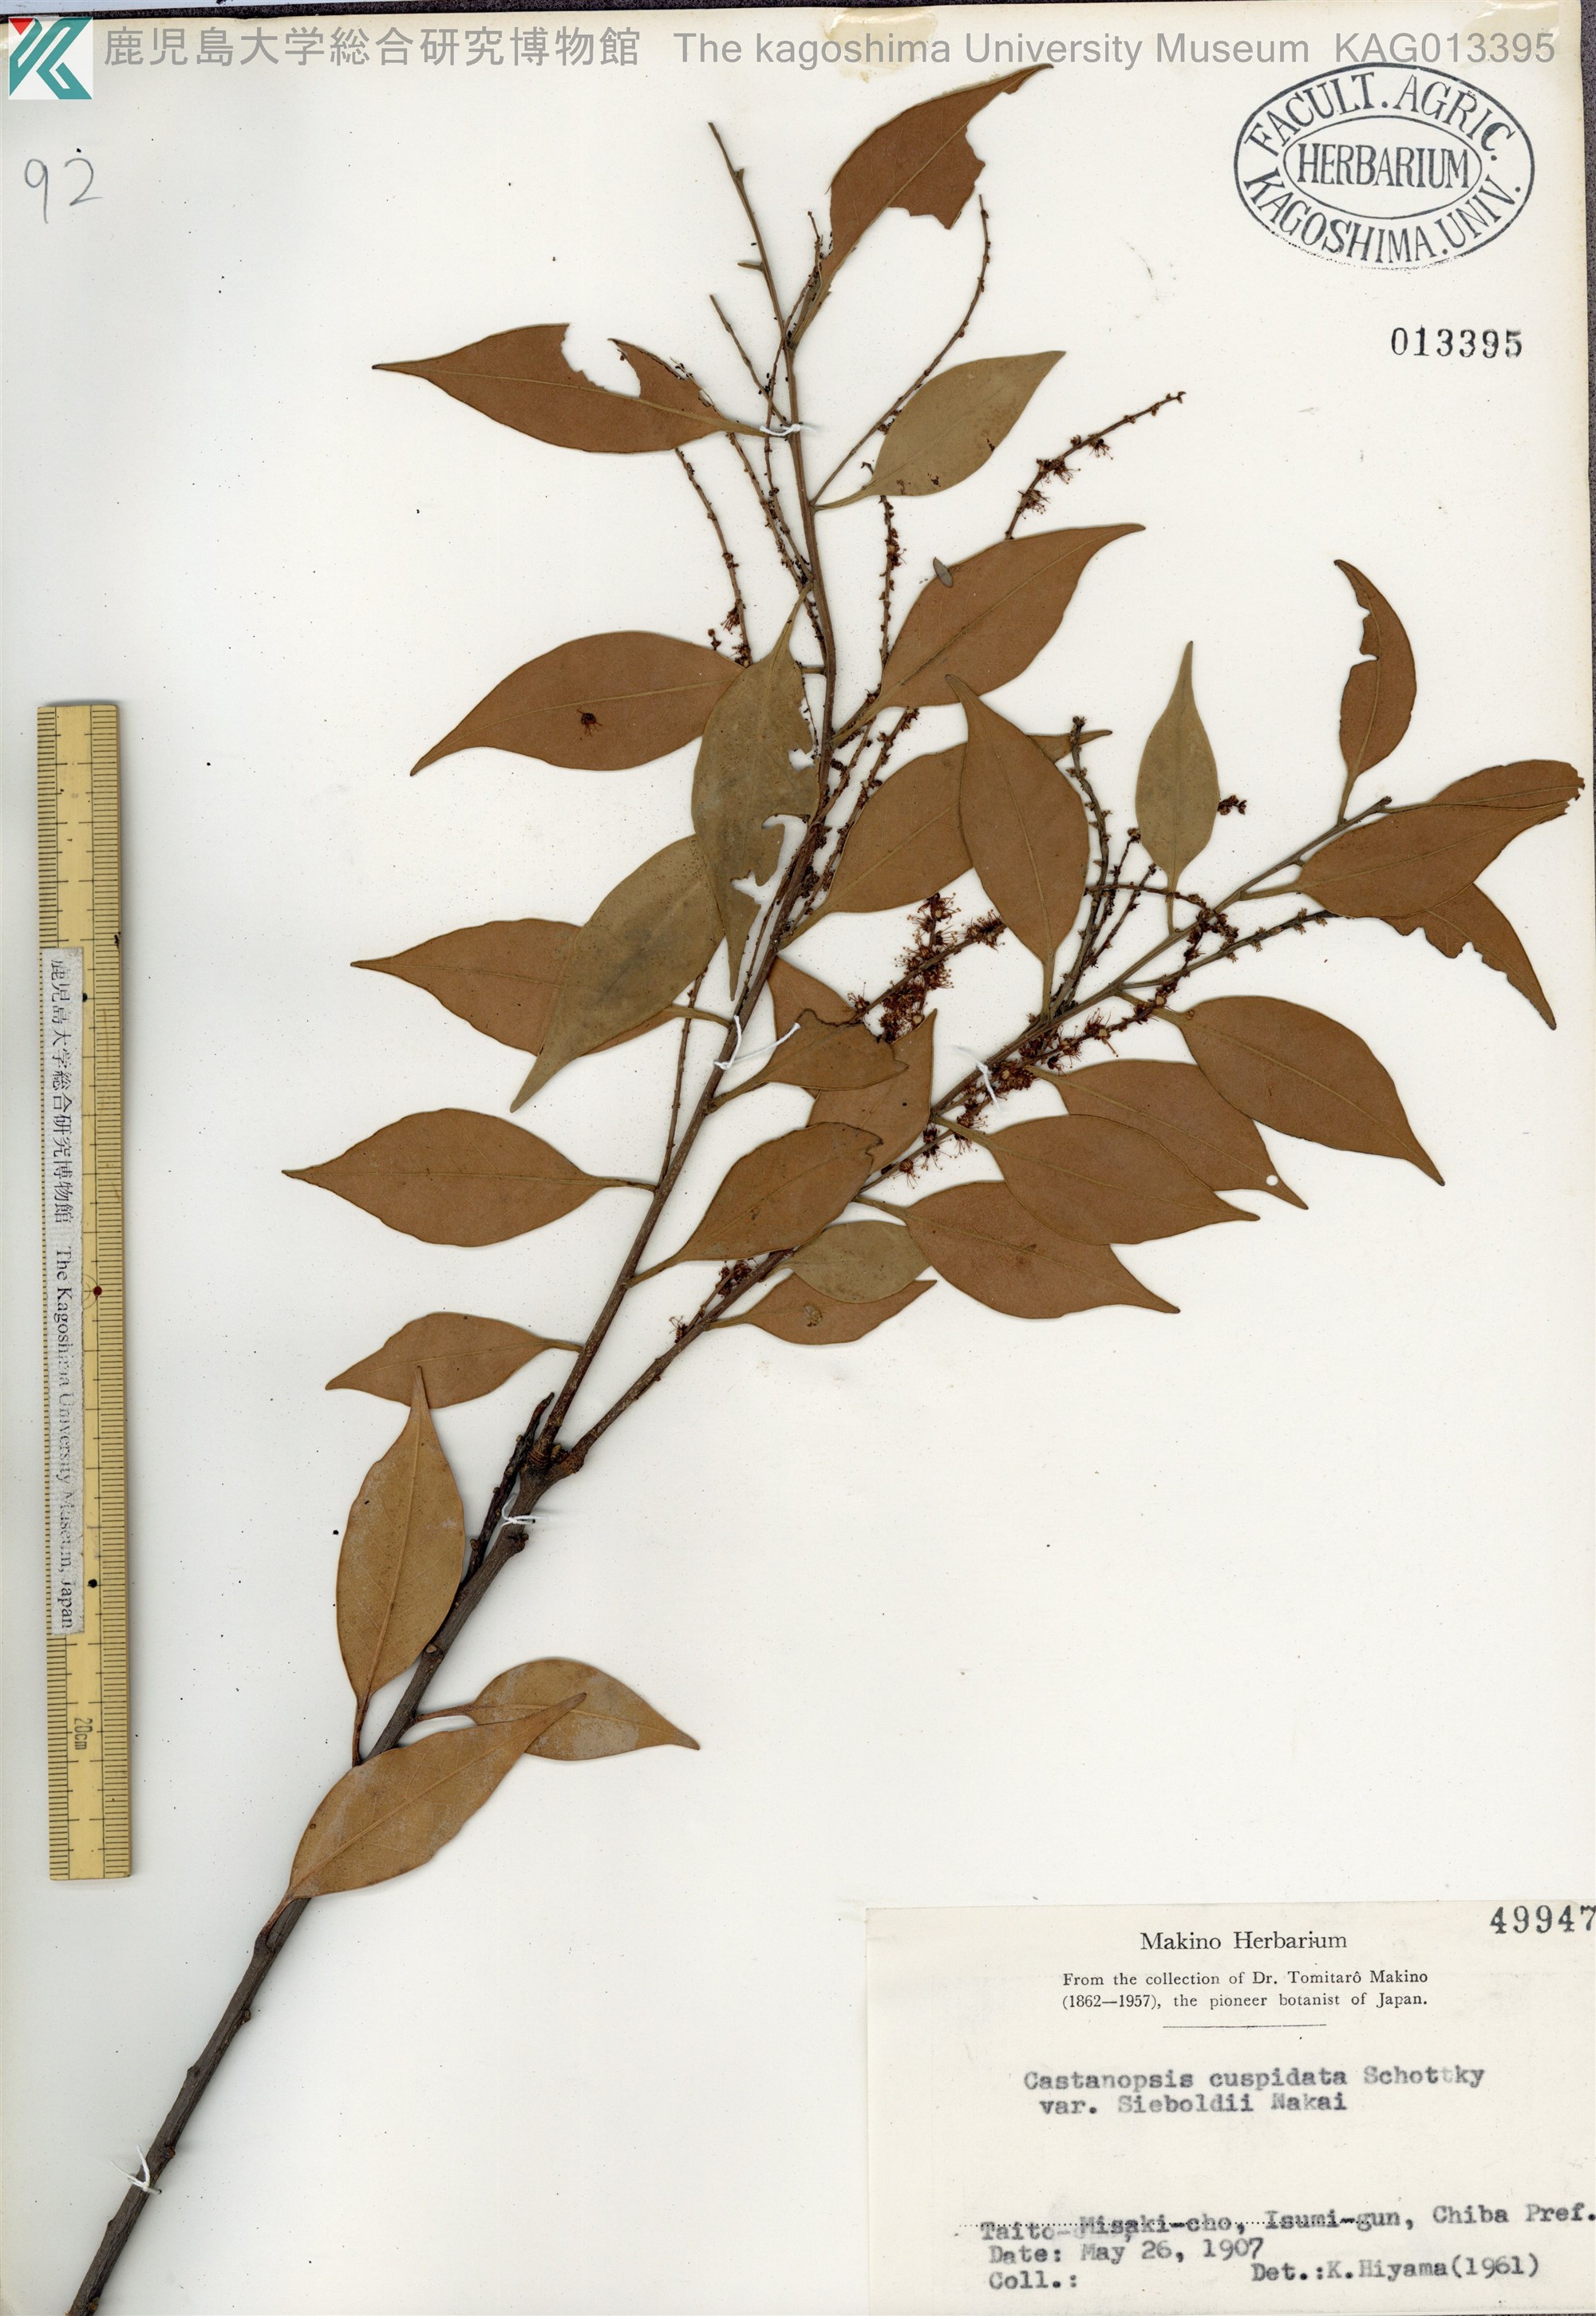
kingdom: Plantae
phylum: Tracheophyta
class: Magnoliopsida
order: Fagales
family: Fagaceae
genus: Castanopsis
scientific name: Castanopsis sieboldii
